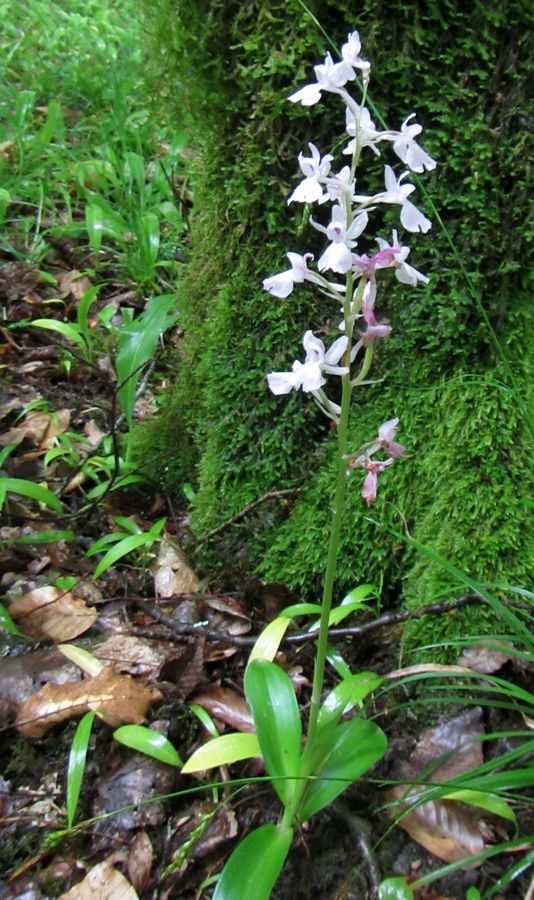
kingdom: Plantae
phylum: Tracheophyta
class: Liliopsida
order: Asparagales
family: Orchidaceae
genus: Orchis
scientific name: Orchis mascula
